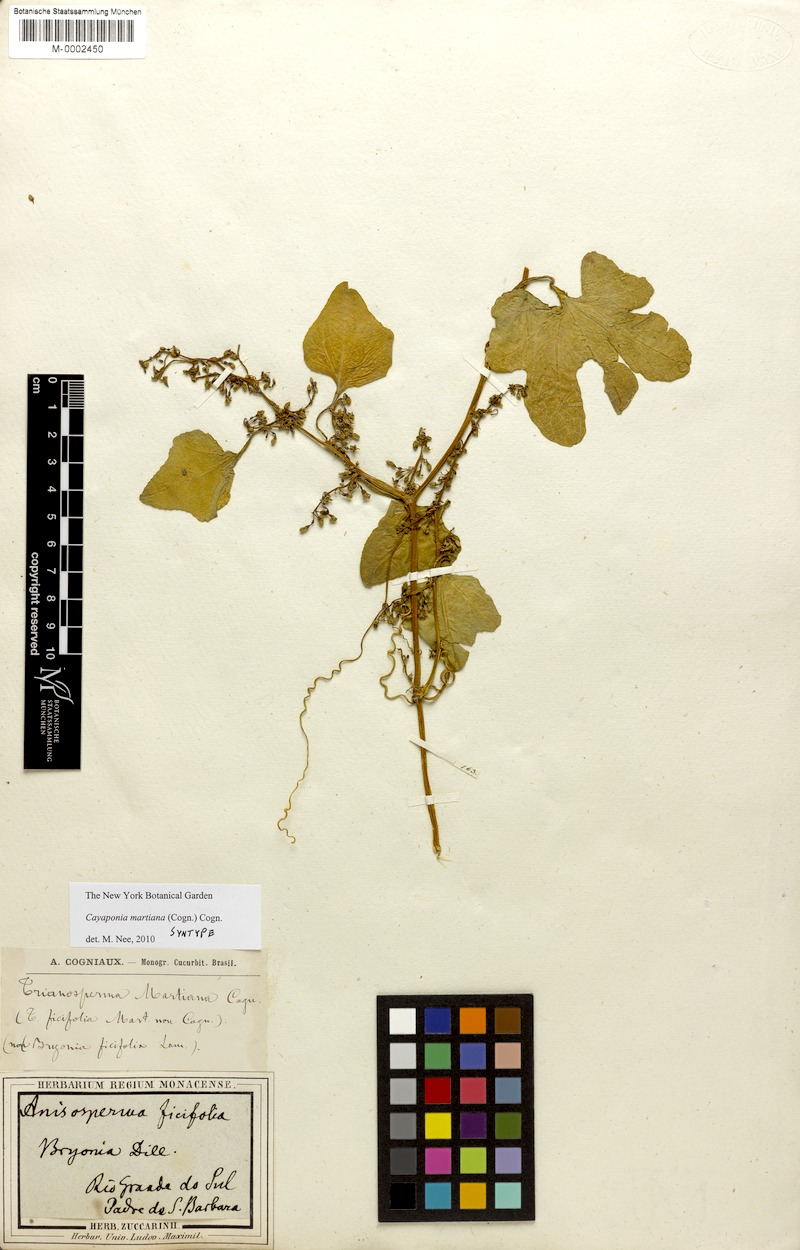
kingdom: Plantae
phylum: Tracheophyta
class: Magnoliopsida
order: Cucurbitales
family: Cucurbitaceae
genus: Cayaponia
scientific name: Cayaponia martiana
